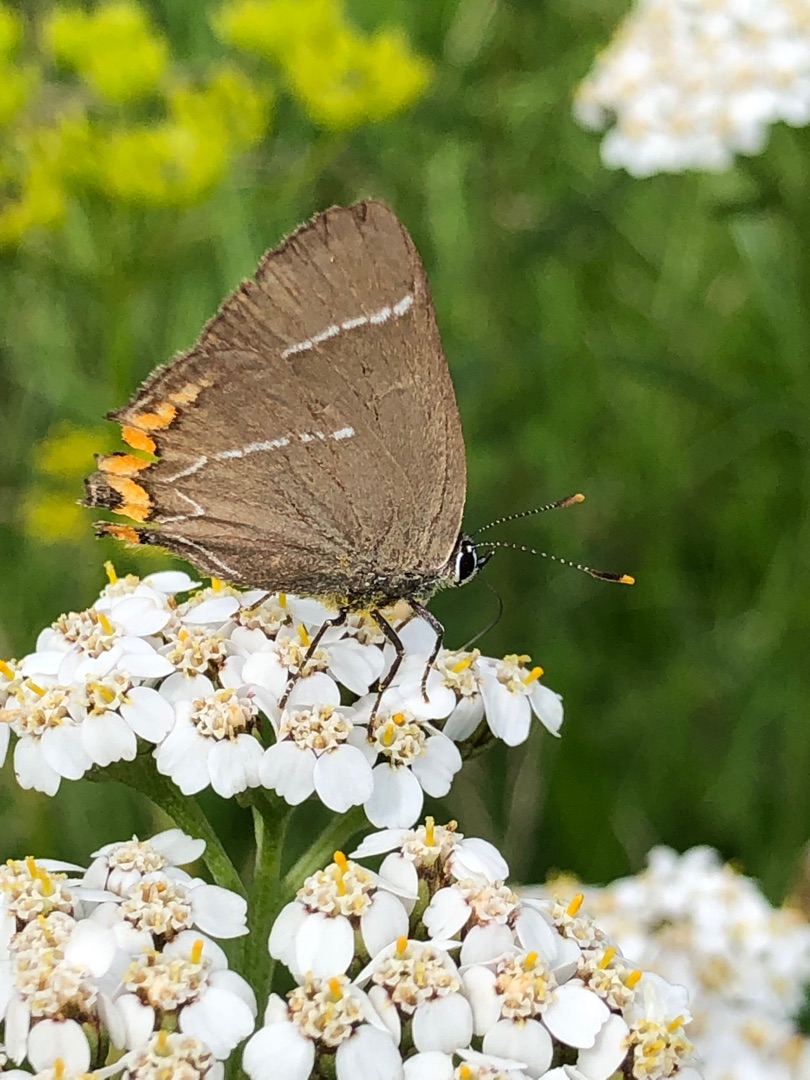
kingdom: Animalia
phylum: Arthropoda
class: Insecta
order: Lepidoptera
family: Lycaenidae
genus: Satyrium
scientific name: Satyrium w-album
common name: Det hvide W
